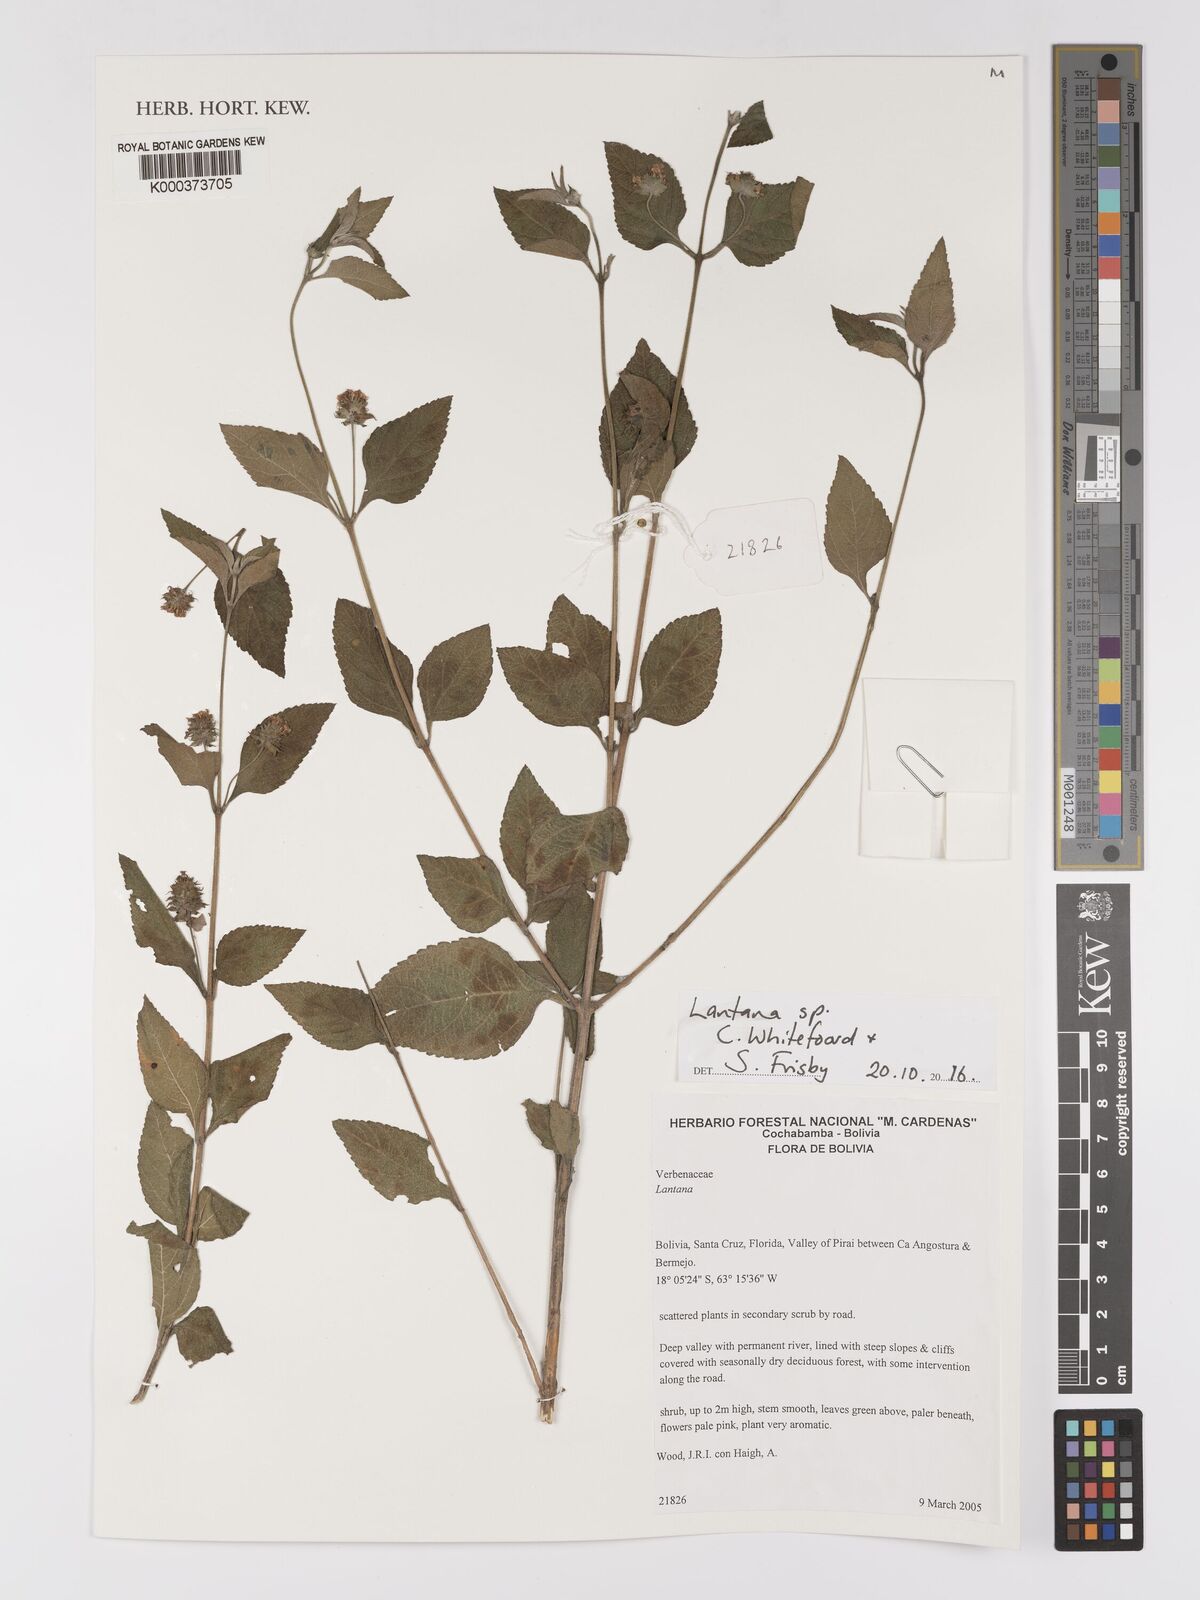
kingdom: Plantae
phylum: Tracheophyta
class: Magnoliopsida
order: Lamiales
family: Verbenaceae
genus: Lantana
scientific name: Lantana
